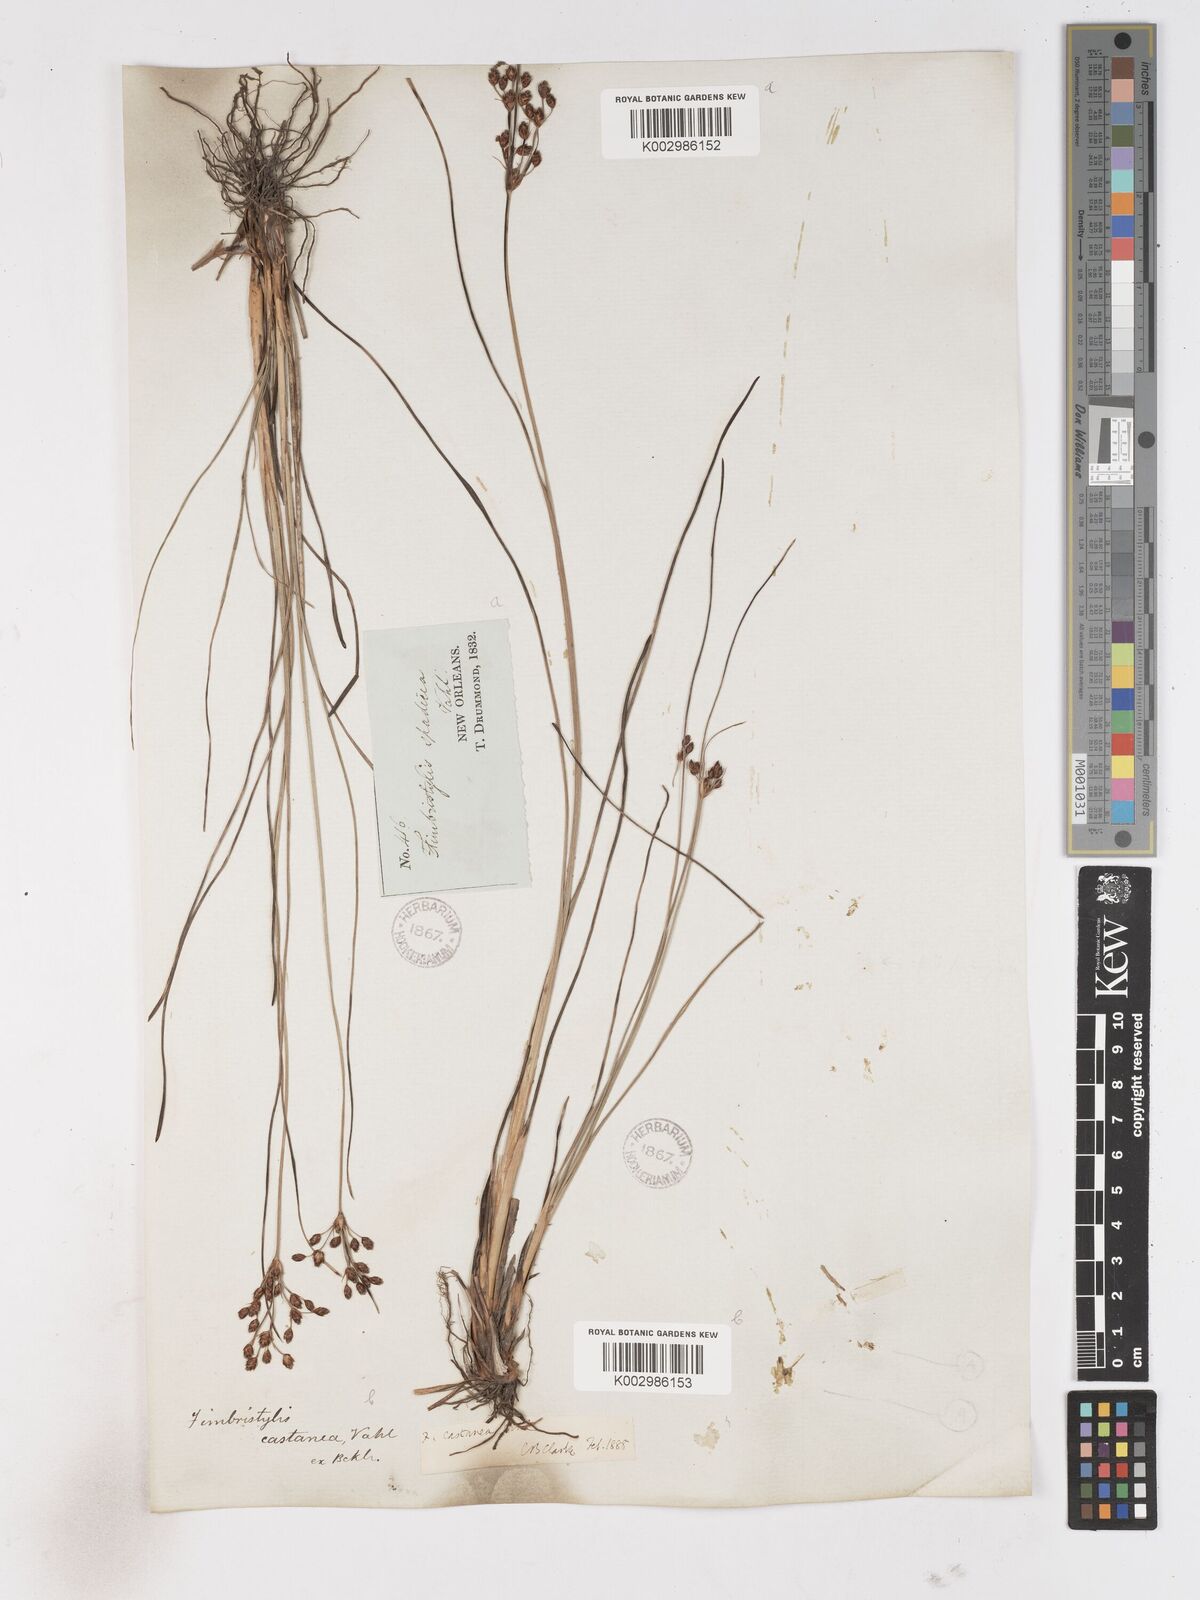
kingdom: Plantae
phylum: Tracheophyta
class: Liliopsida
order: Poales
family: Cyperaceae
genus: Fimbristylis
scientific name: Fimbristylis spadicea
